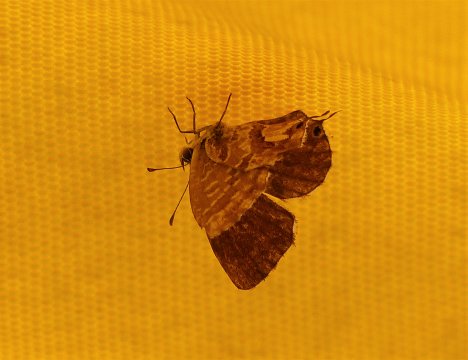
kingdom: Animalia
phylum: Arthropoda
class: Insecta
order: Lepidoptera
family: Lycaenidae
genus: Cacyreus
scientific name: Cacyreus marshalli
